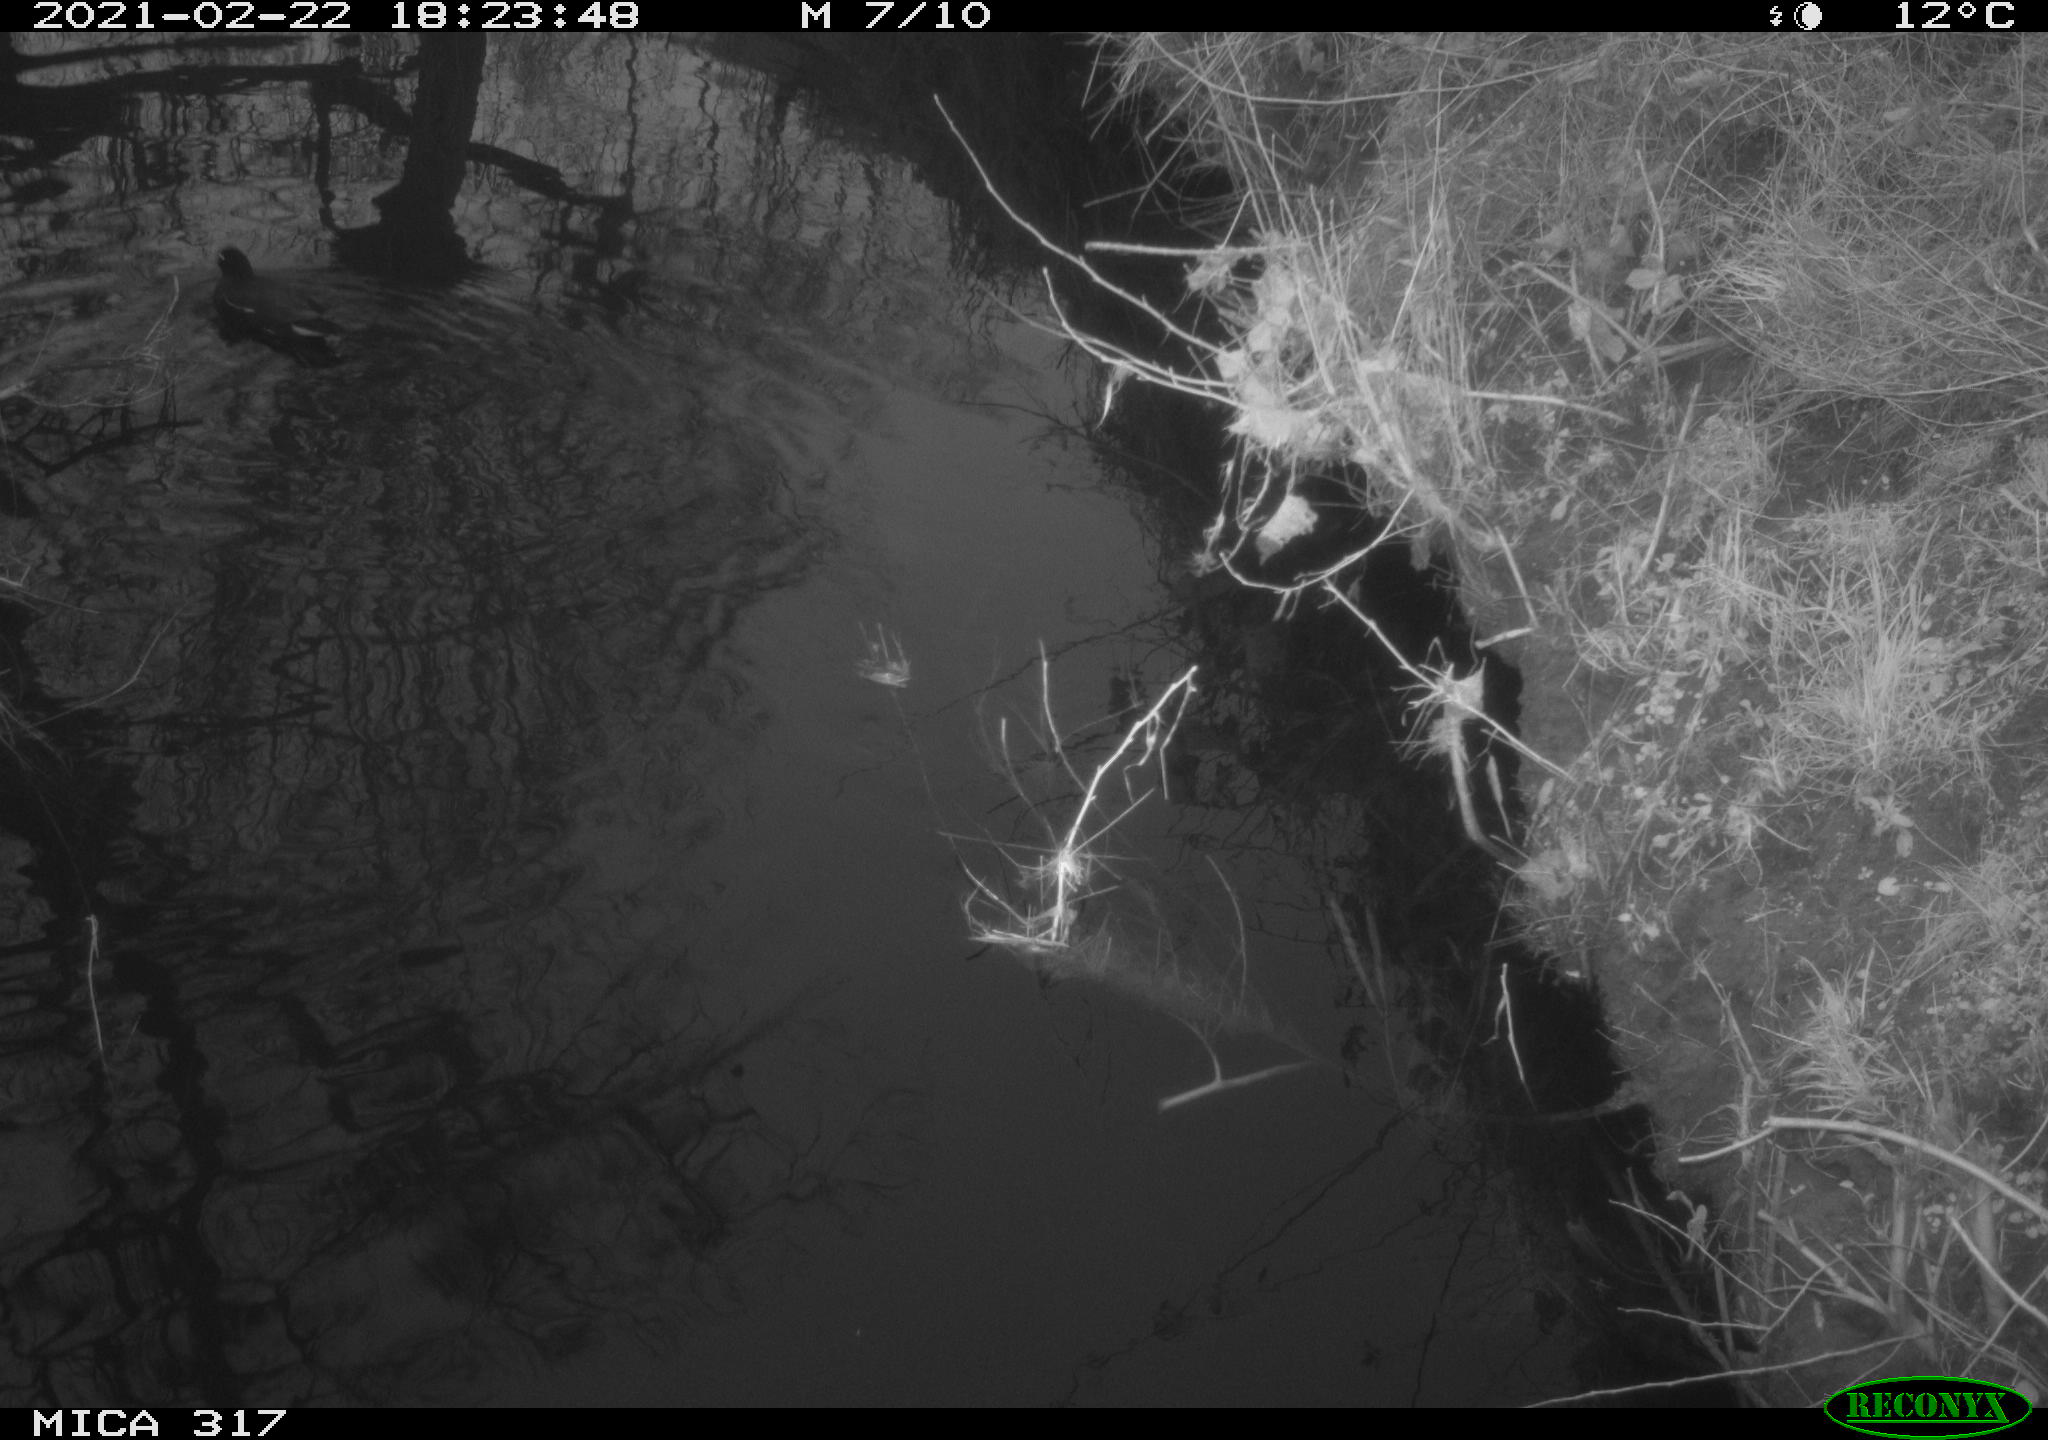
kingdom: Animalia
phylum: Chordata
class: Aves
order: Gruiformes
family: Rallidae
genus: Fulica
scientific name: Fulica atra
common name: Eurasian coot
